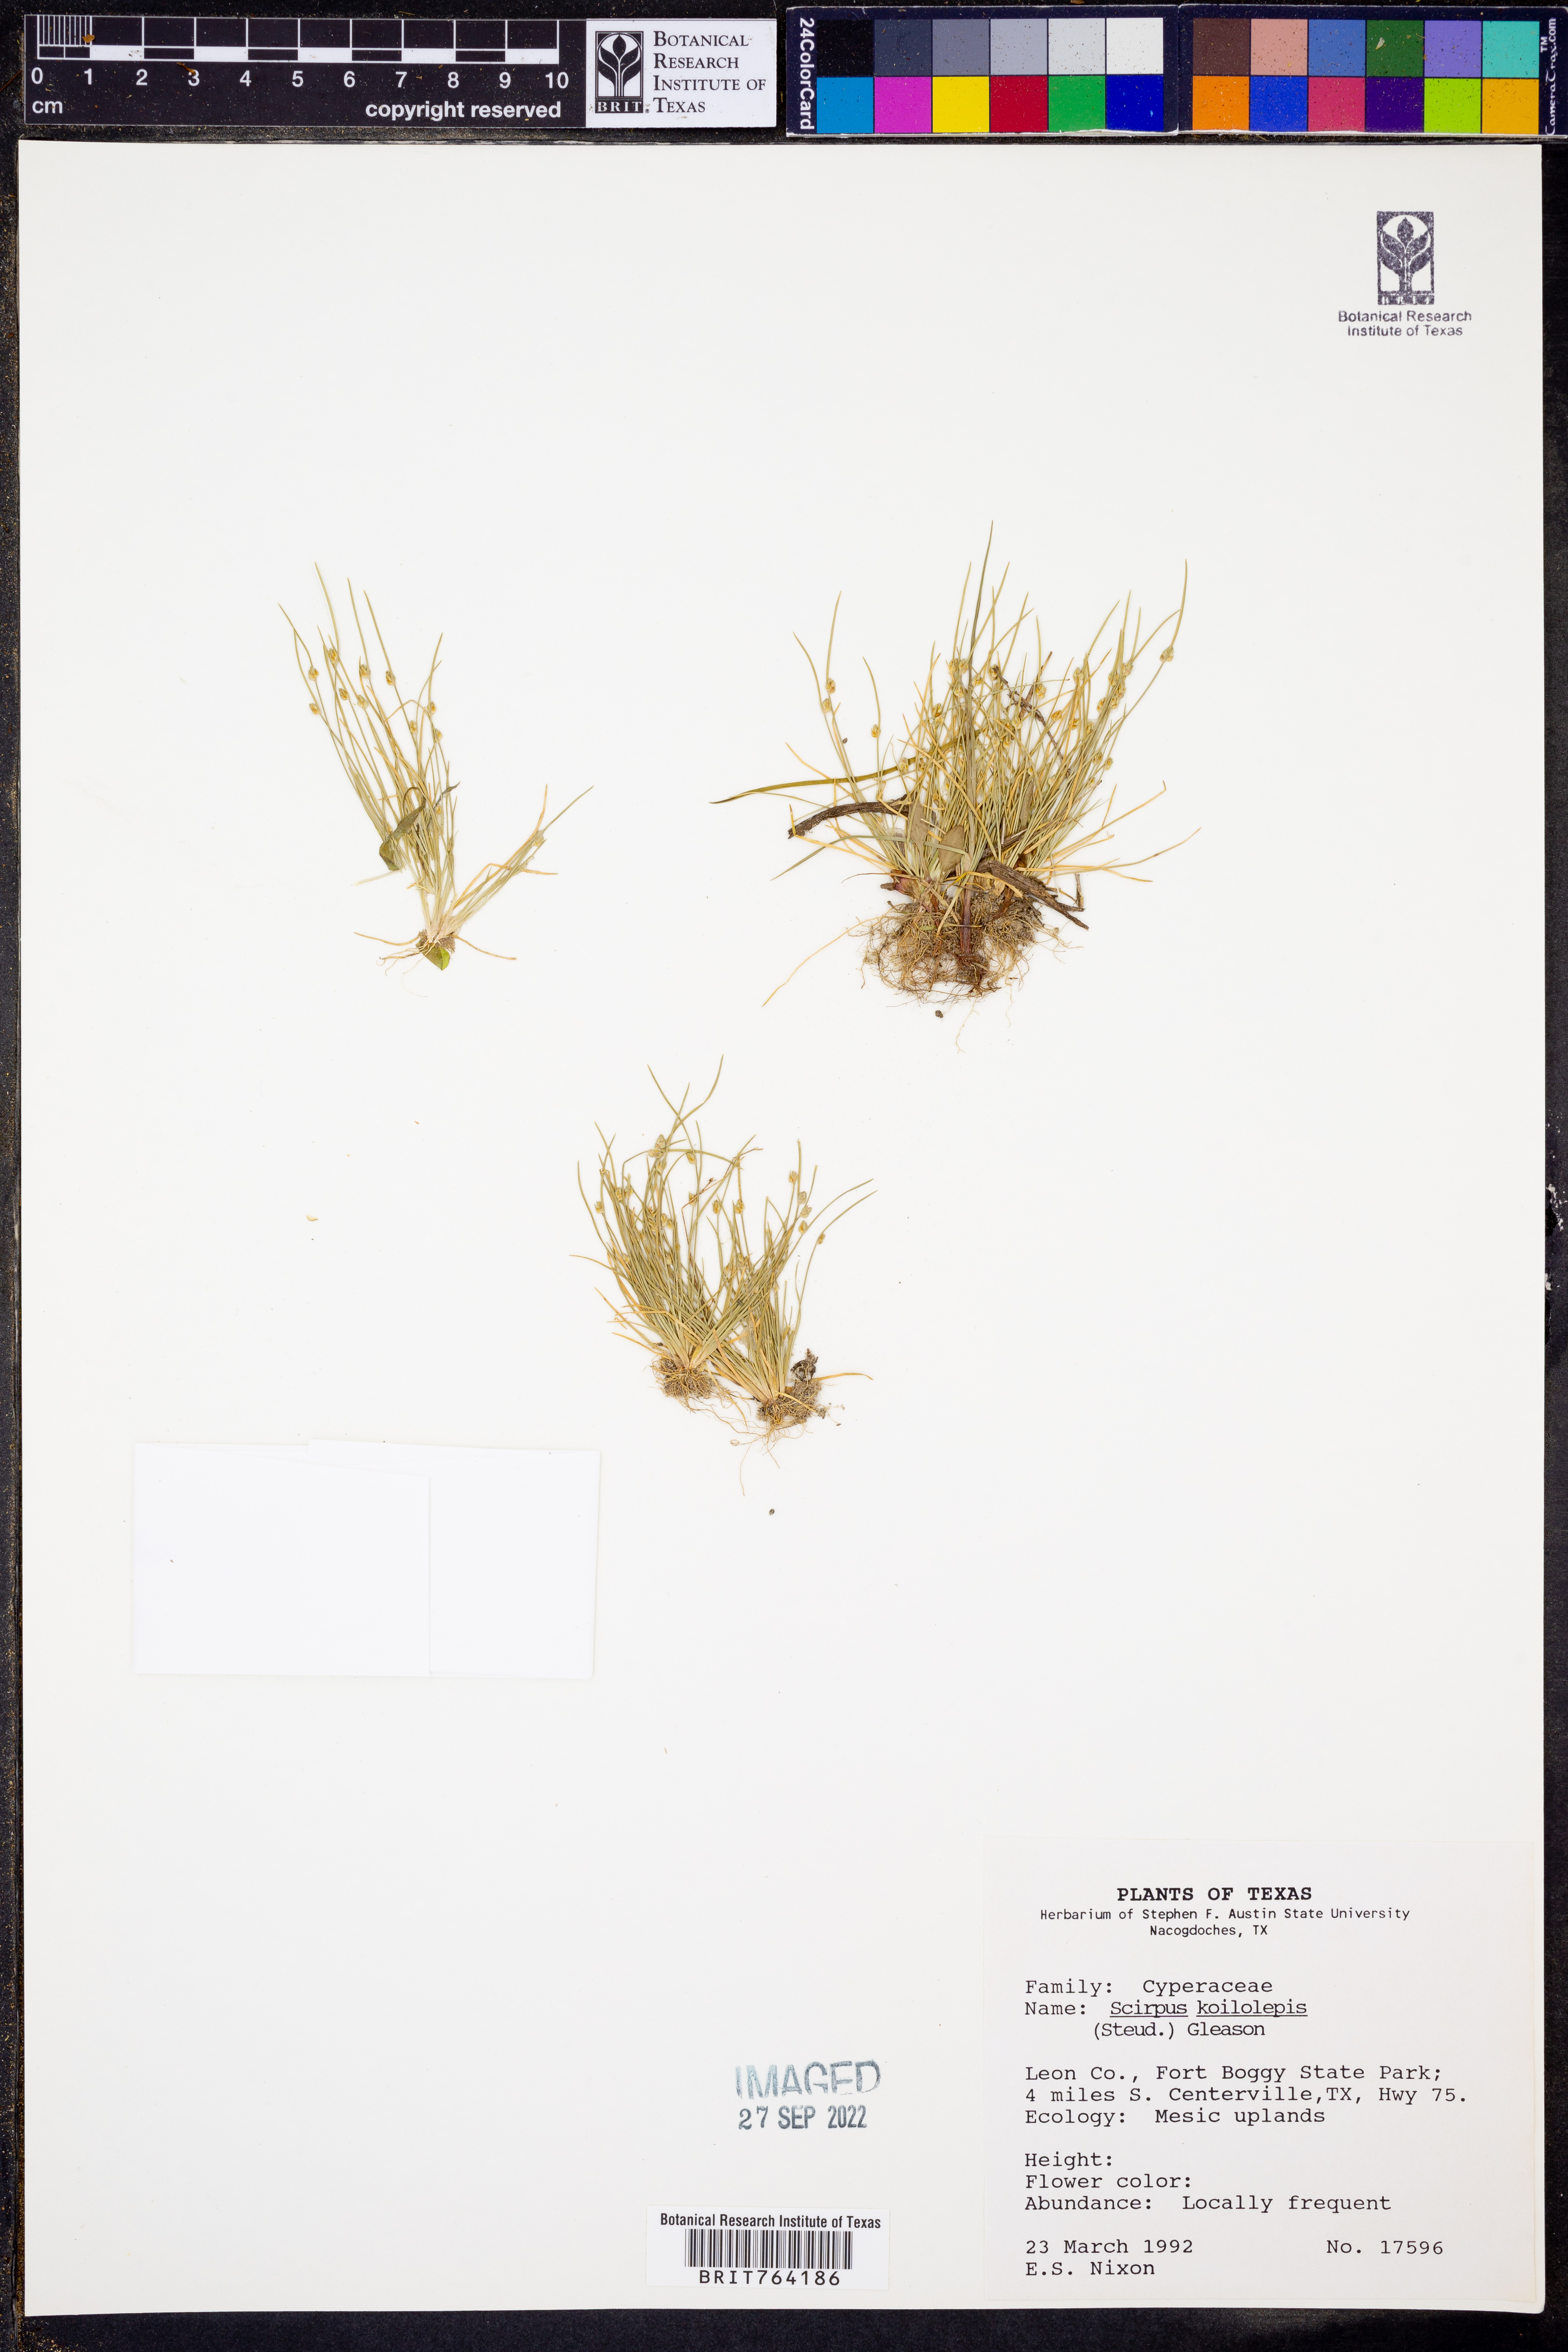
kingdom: Plantae
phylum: Tracheophyta
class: Liliopsida
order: Poales
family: Cyperaceae
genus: Isolepis
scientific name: Isolepis carinata
